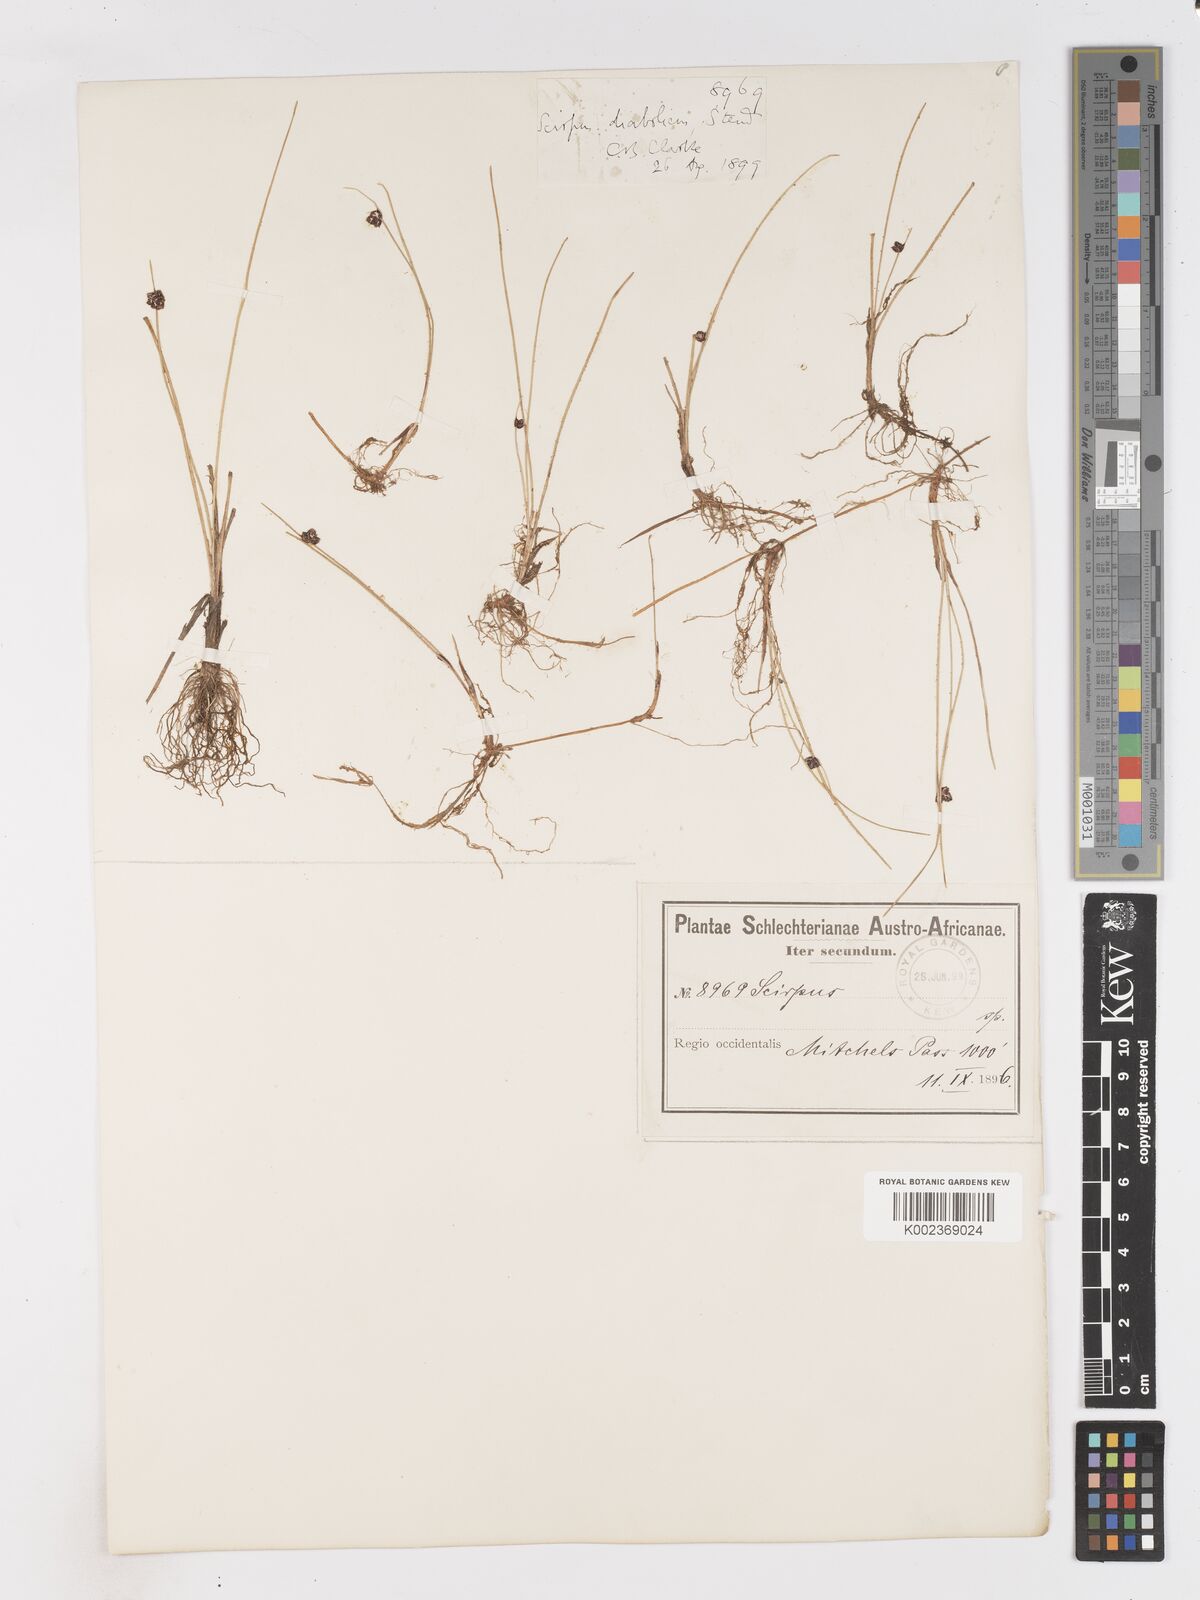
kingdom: Plantae
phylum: Tracheophyta
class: Liliopsida
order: Poales
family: Cyperaceae
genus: Isolepis
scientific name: Isolepis diabolica
